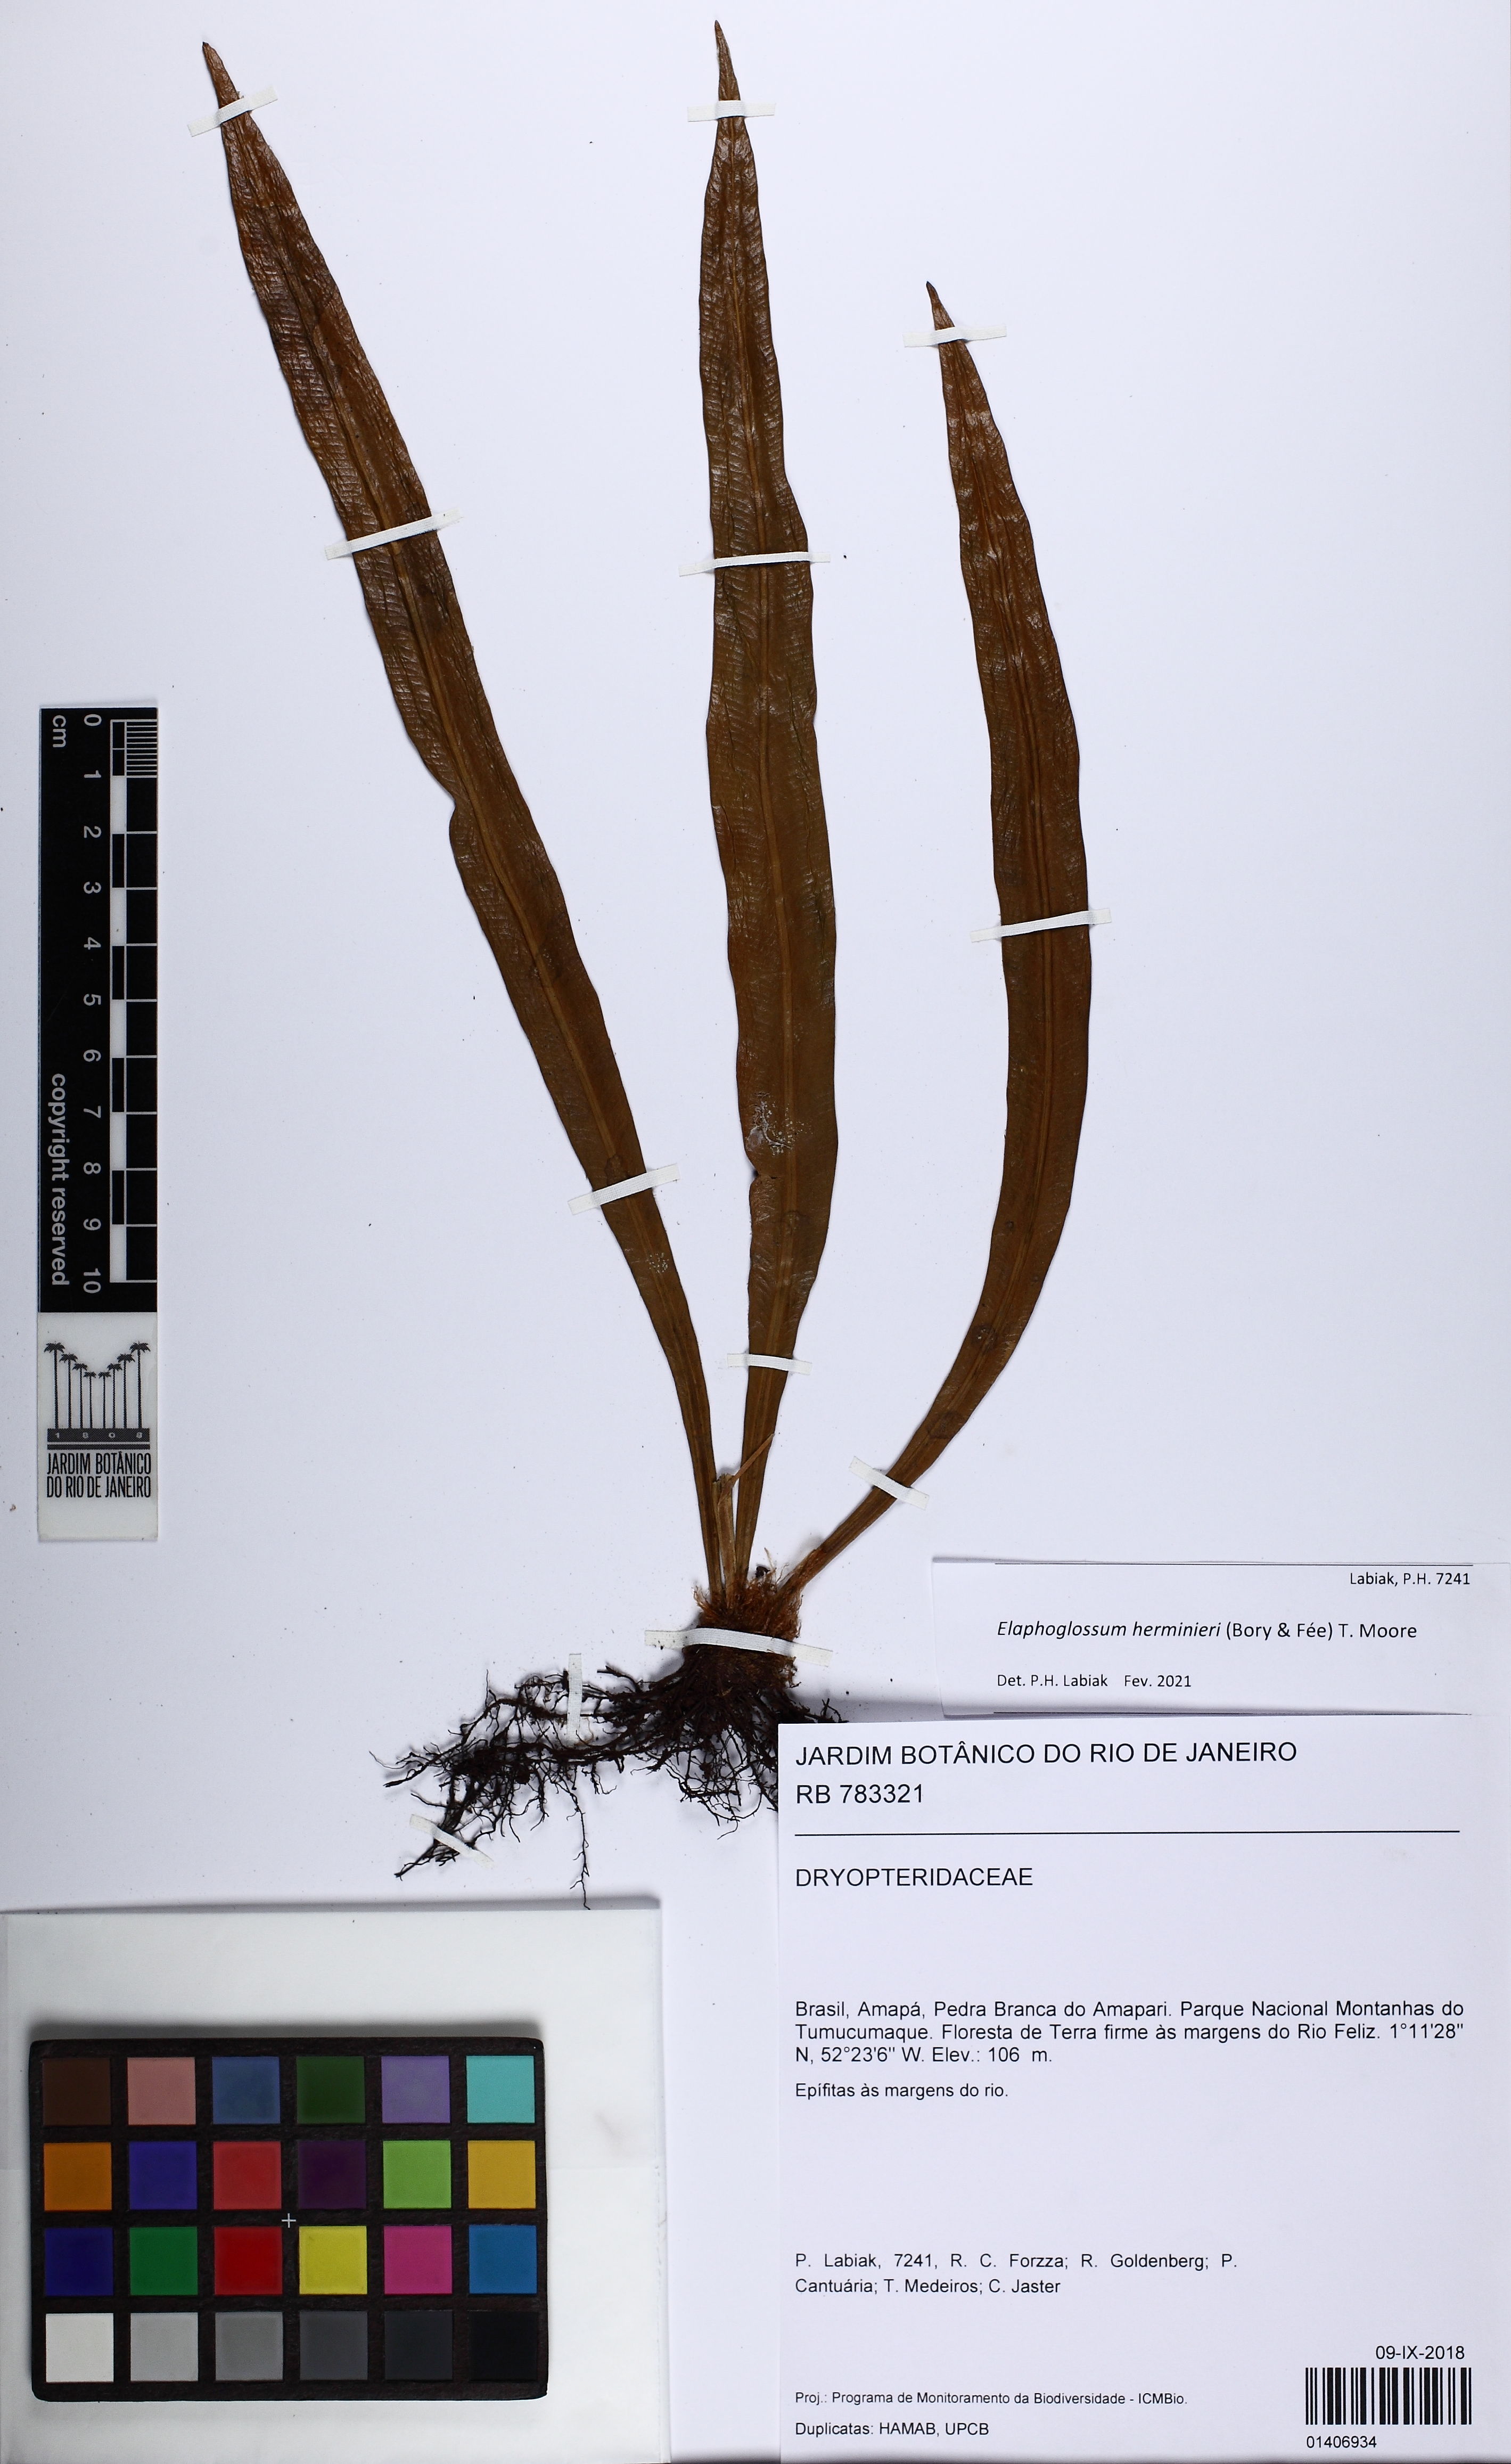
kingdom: Plantae
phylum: Tracheophyta
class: Polypodiopsida
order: Polypodiales
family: Dryopteridaceae
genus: Elaphoglossum
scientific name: Elaphoglossum herminieri
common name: Drooping tonguefern
